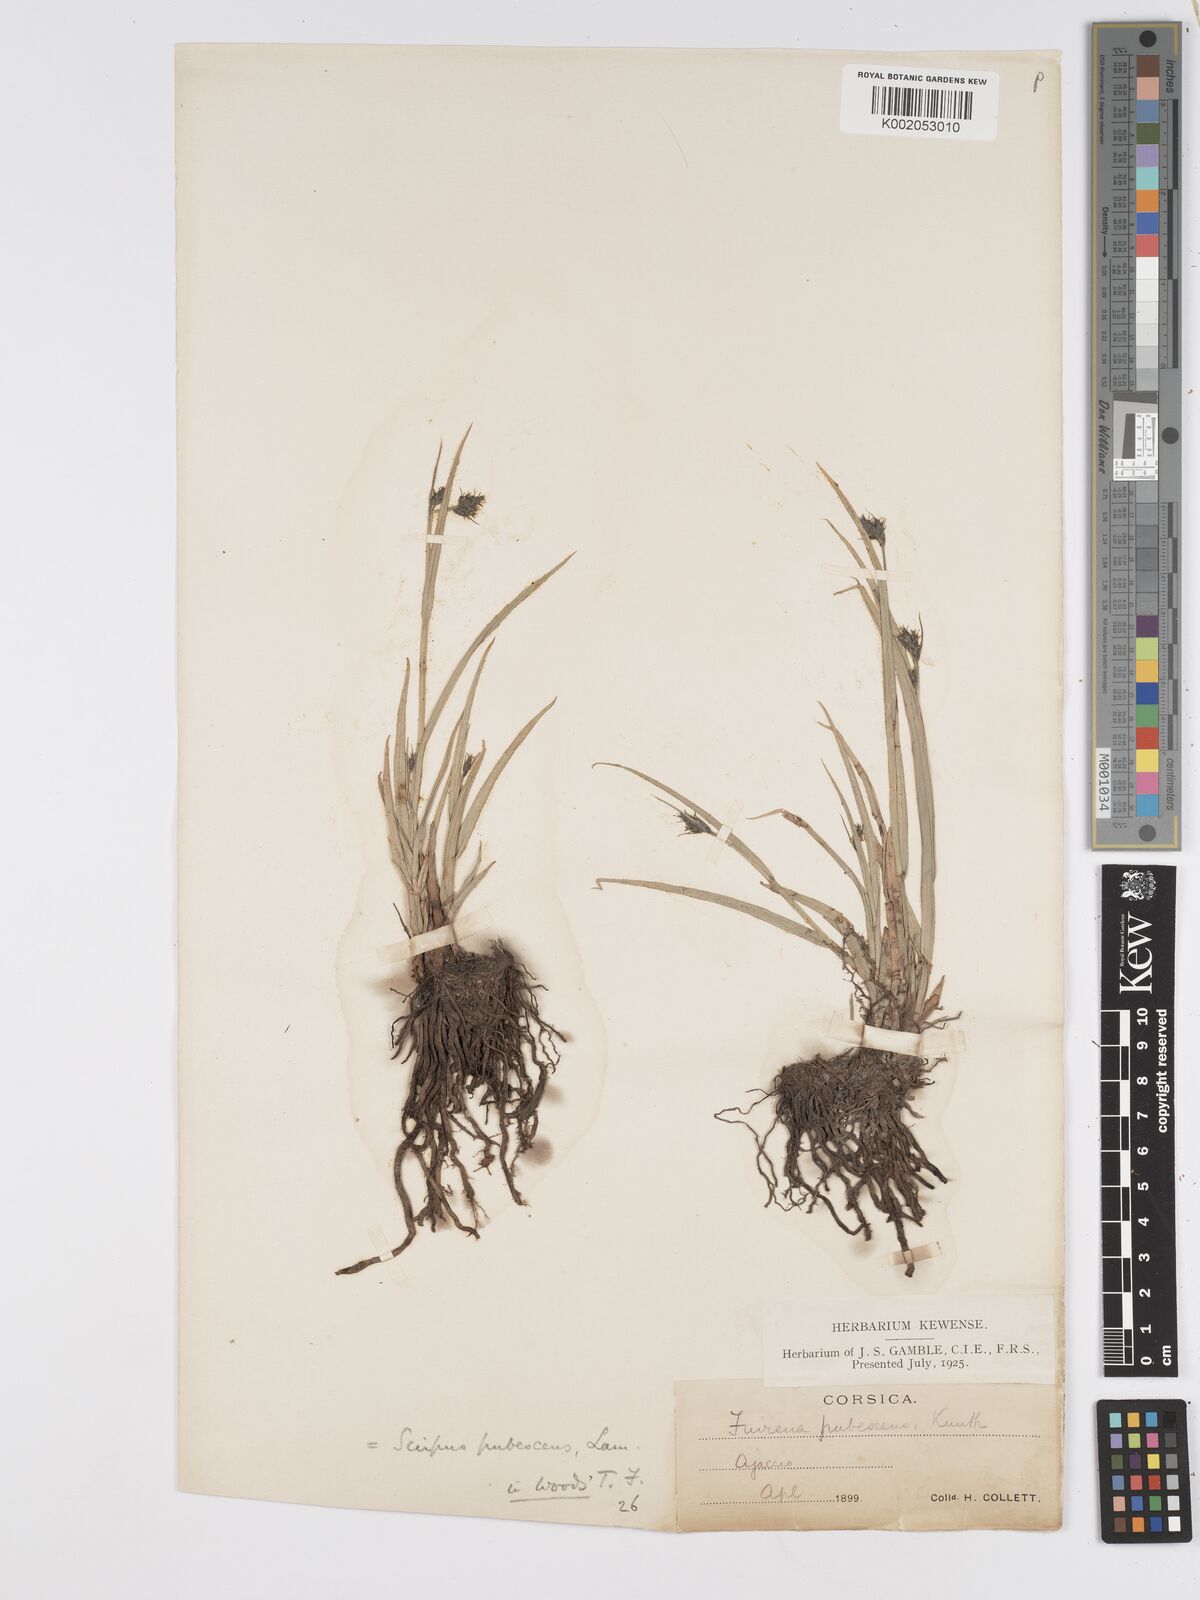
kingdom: Plantae
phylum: Tracheophyta
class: Liliopsida
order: Poales
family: Cyperaceae
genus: Fuirena
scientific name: Fuirena pubescens
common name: Hairy sedge
